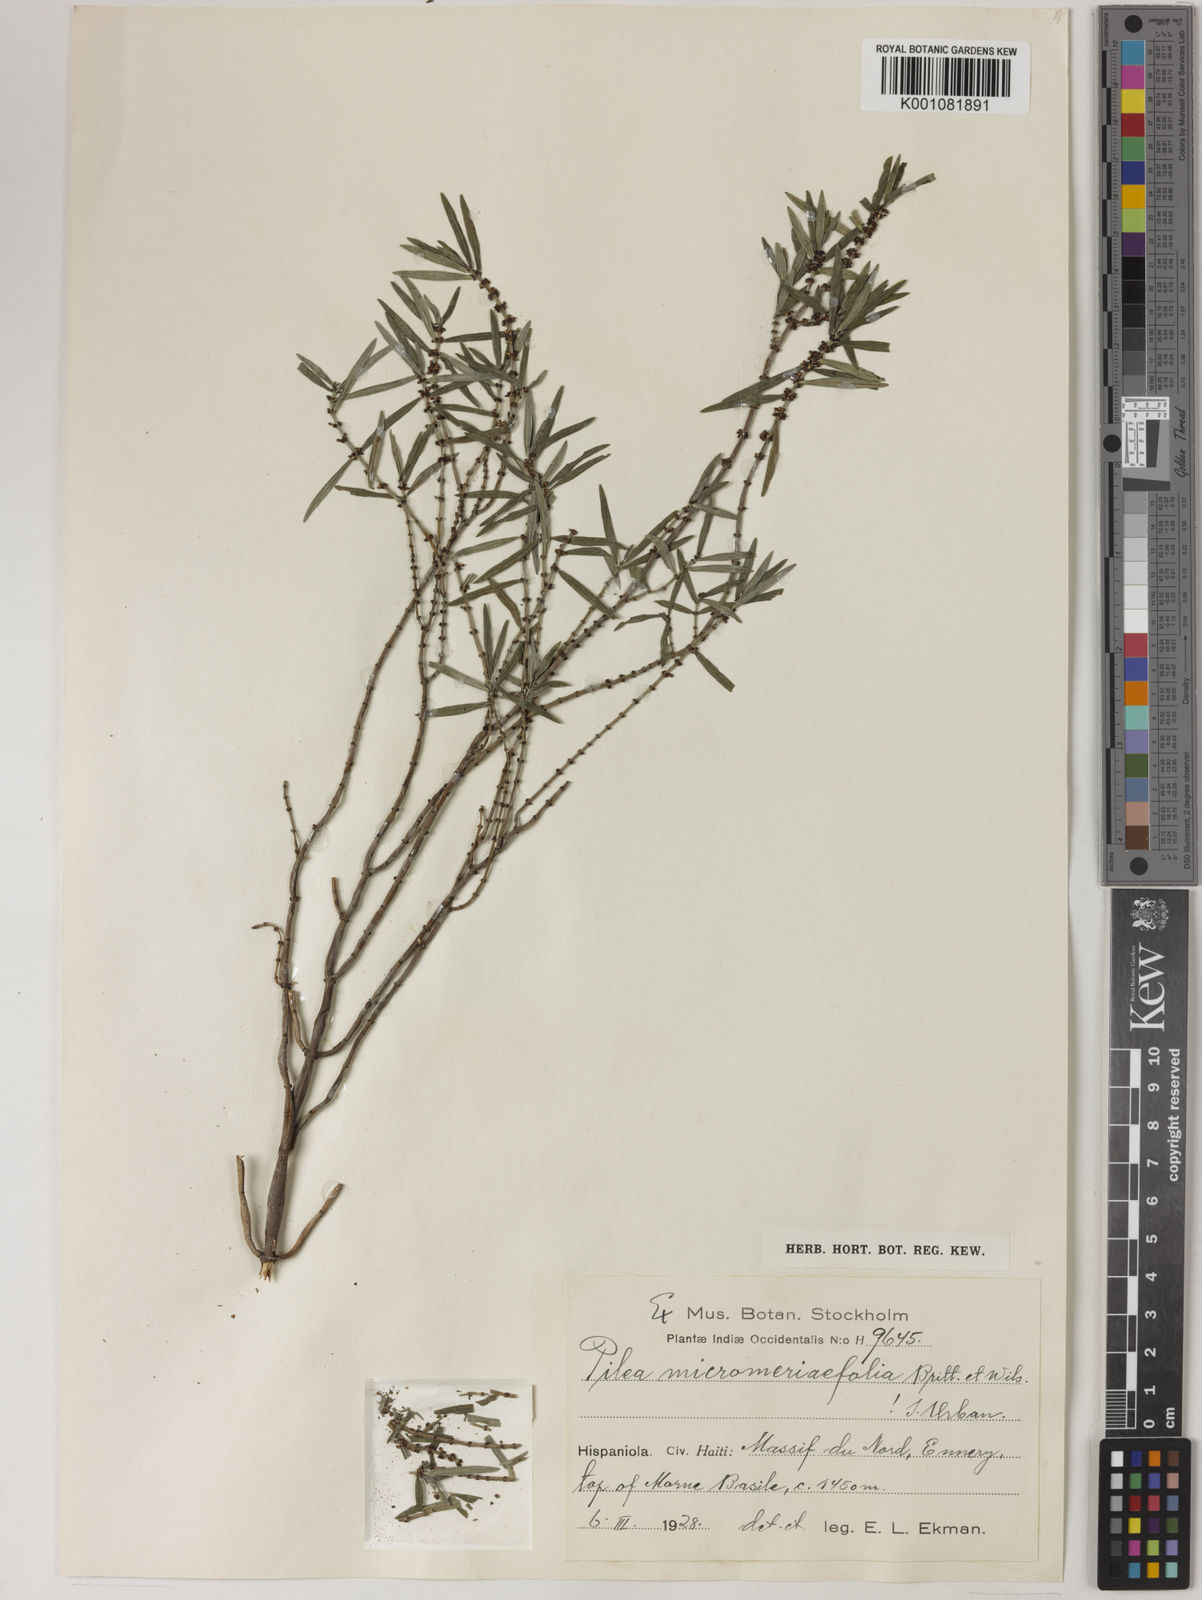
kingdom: Plantae
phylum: Tracheophyta
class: Magnoliopsida
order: Rosales
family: Urticaceae
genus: Pilea
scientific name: Pilea micromeriifolia
